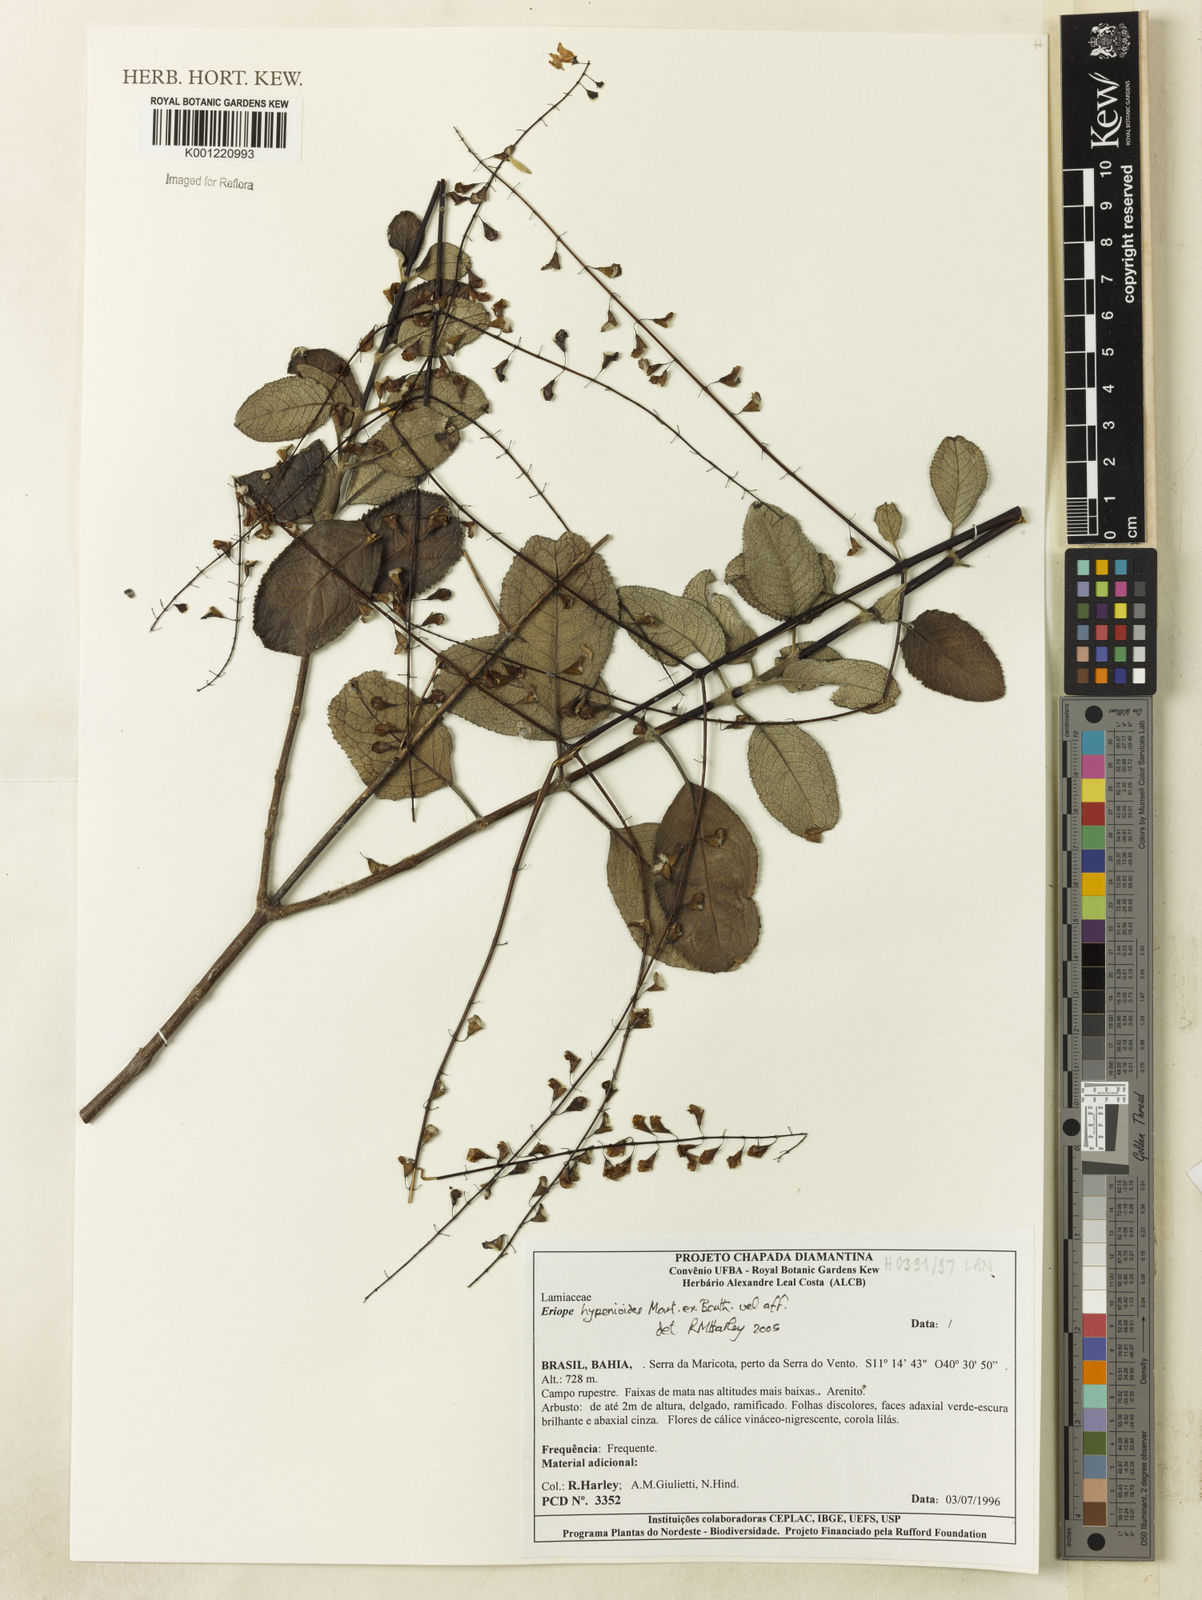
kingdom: Plantae
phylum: Tracheophyta
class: Magnoliopsida
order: Lamiales
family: Lamiaceae
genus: Eriope
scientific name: Eriope hypenioides
